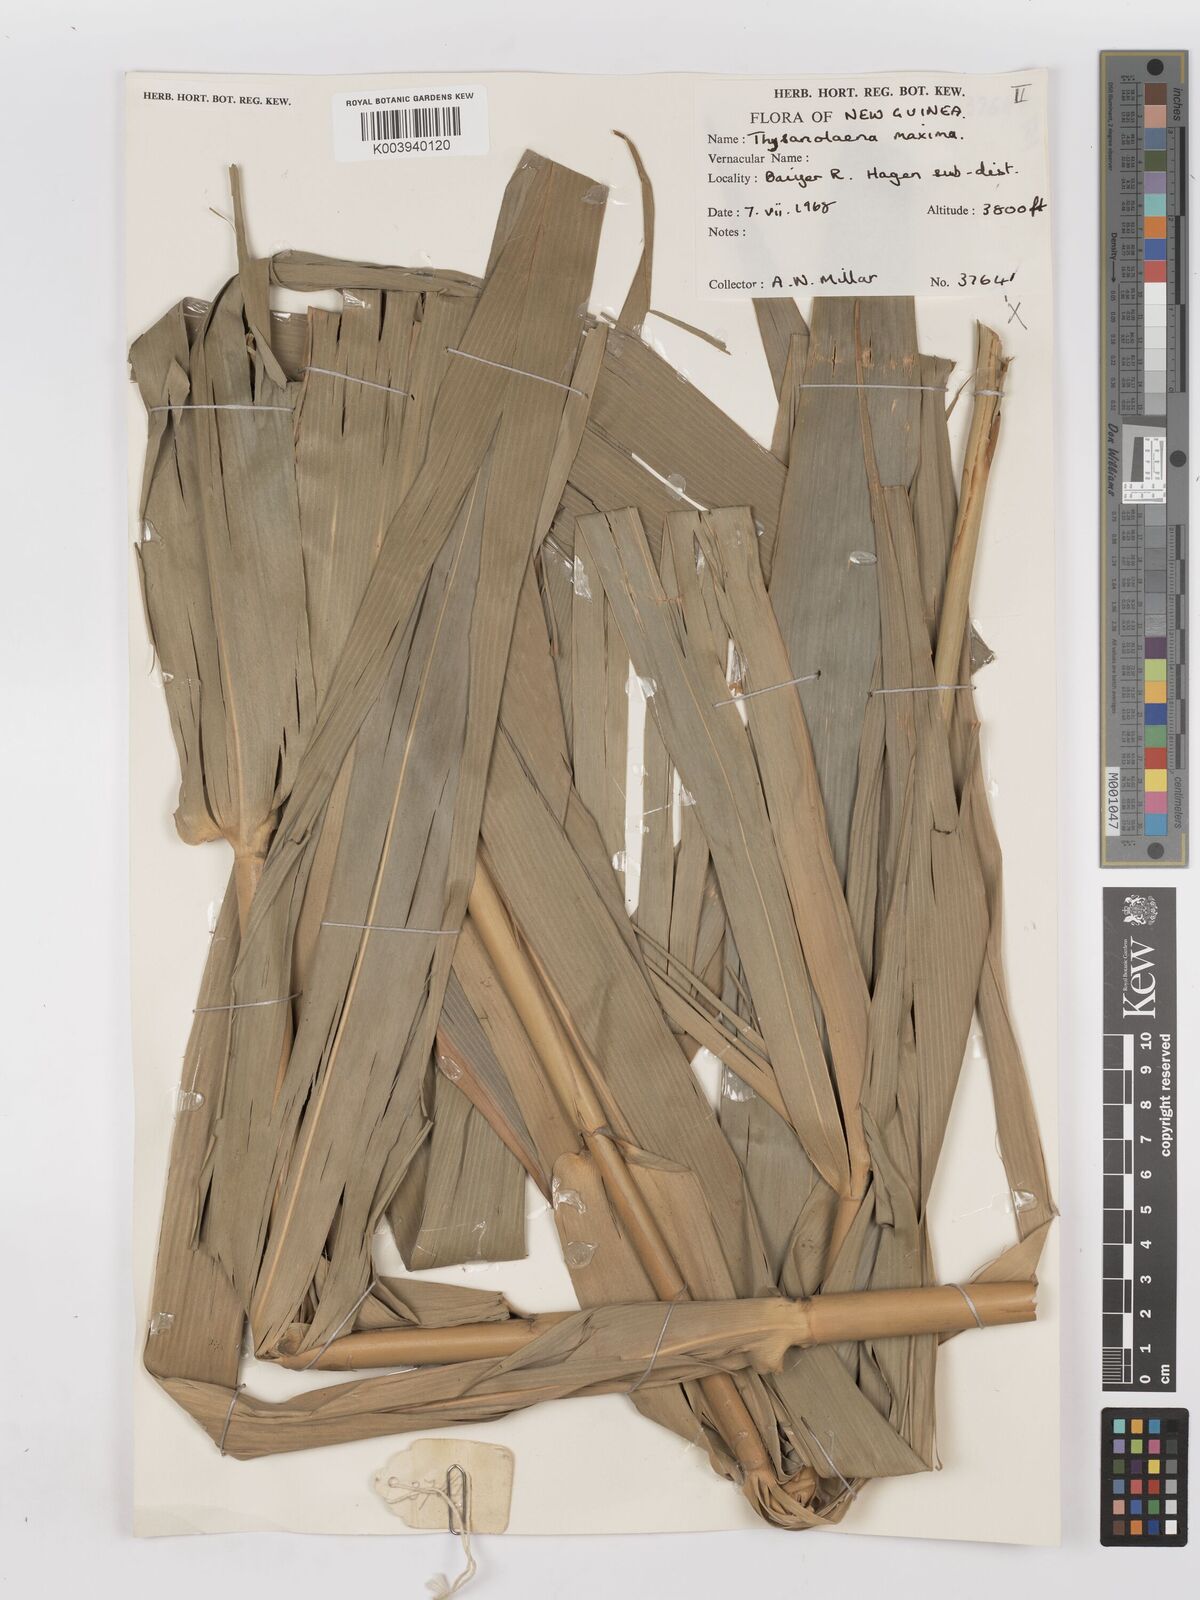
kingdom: Plantae
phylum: Tracheophyta
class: Liliopsida
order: Poales
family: Poaceae
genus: Thysanolaena
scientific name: Thysanolaena latifolia
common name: Tiger grass
